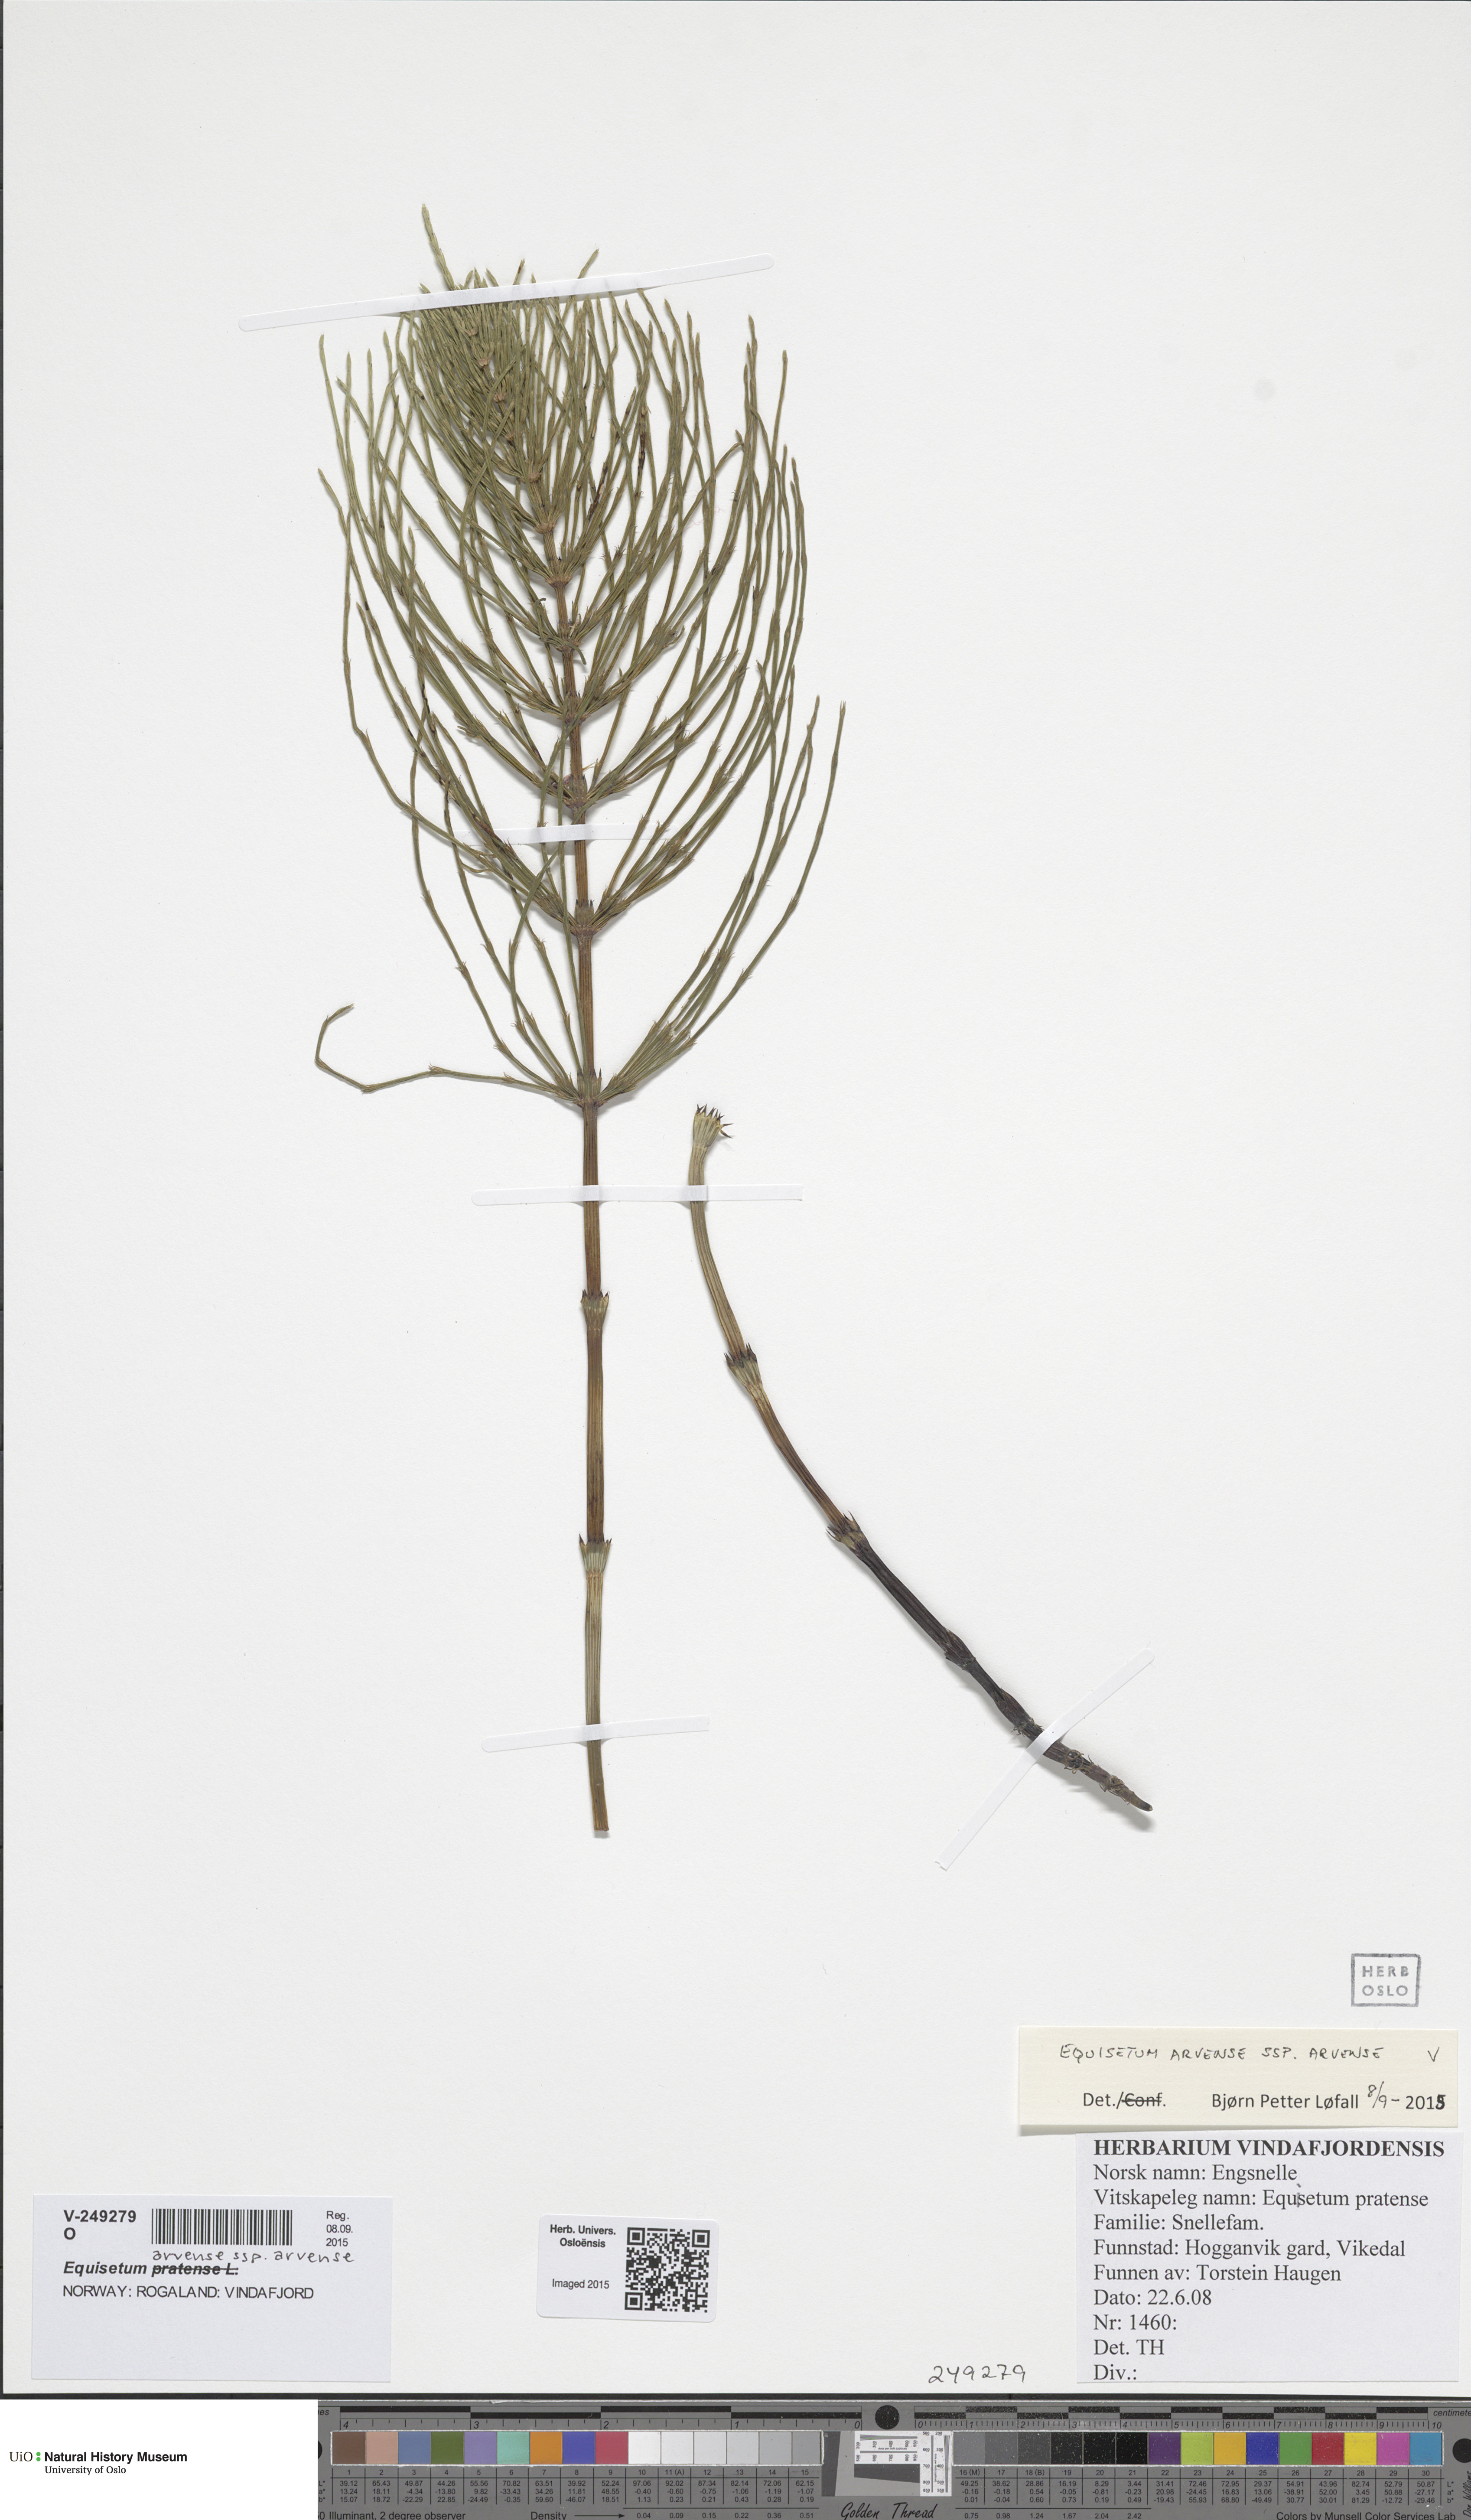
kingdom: Plantae
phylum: Tracheophyta
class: Polypodiopsida
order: Equisetales
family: Equisetaceae
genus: Equisetum
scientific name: Equisetum pratense
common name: Meadow horsetail
